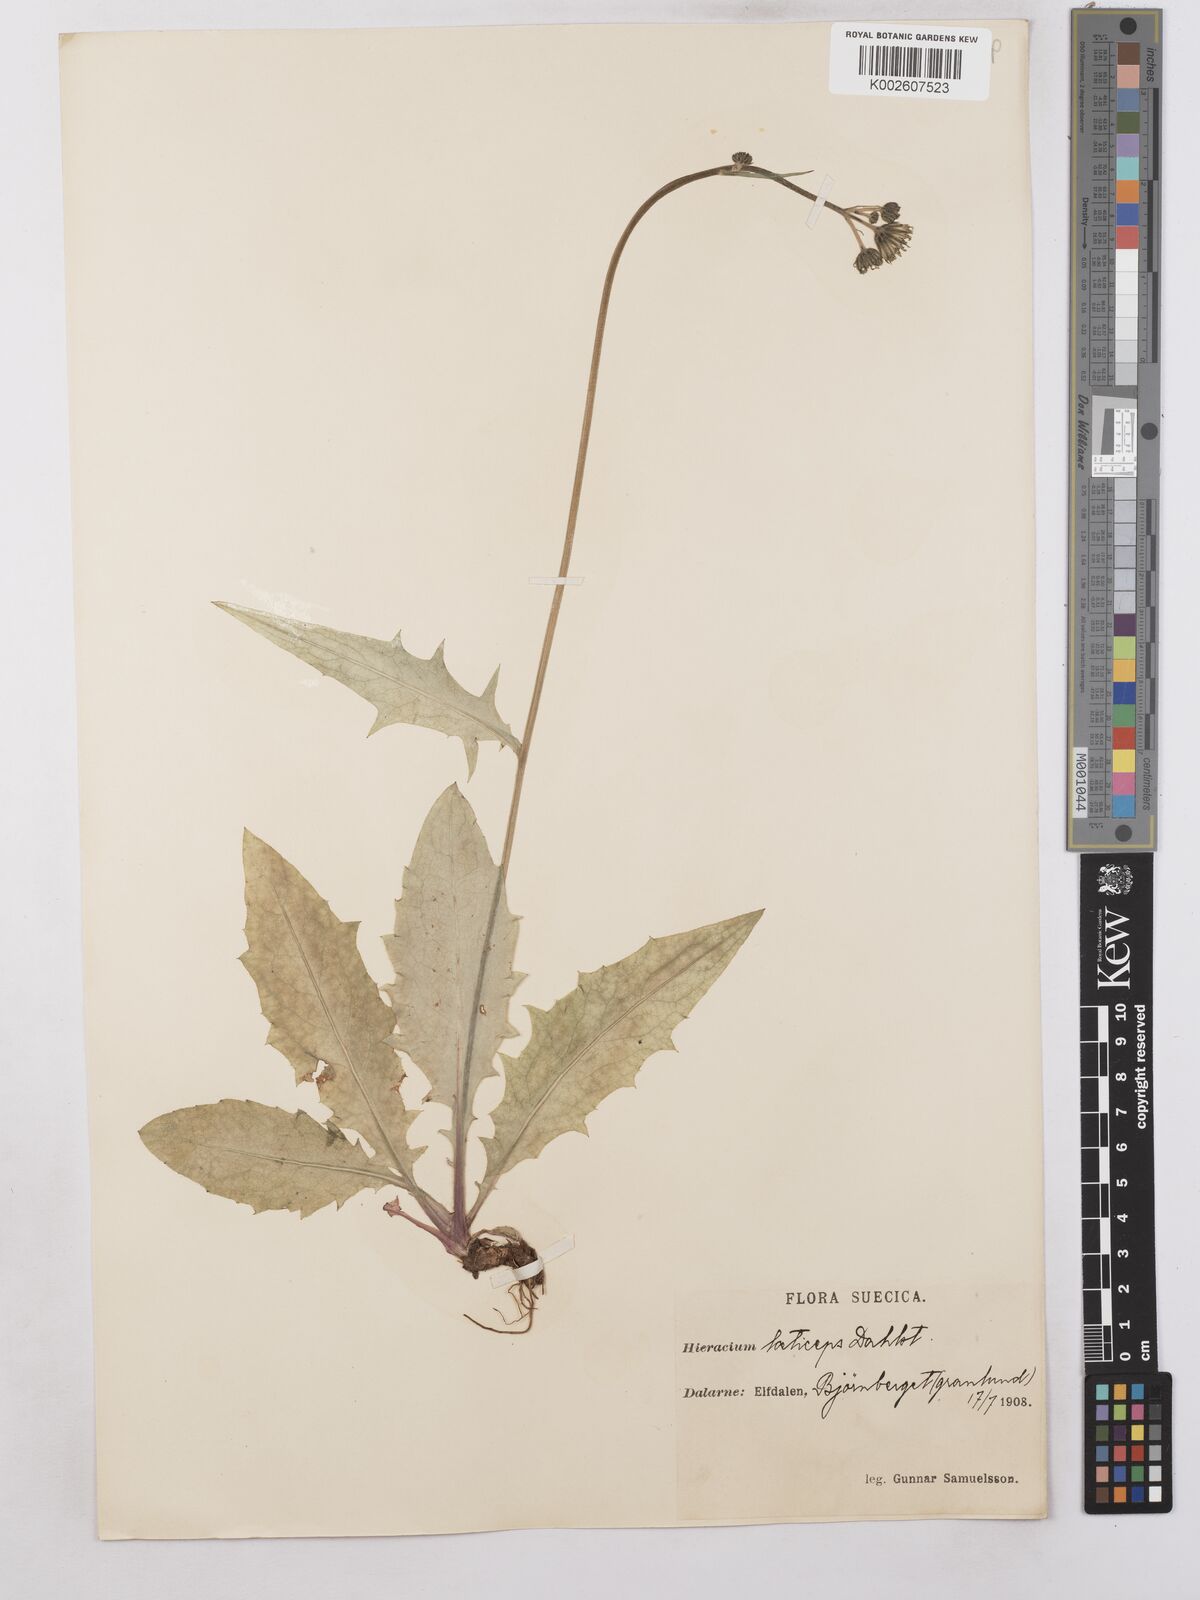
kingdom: Plantae
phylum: Tracheophyta
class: Magnoliopsida
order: Asterales
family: Asteraceae
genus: Hieracium
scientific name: Hieracium caesium
